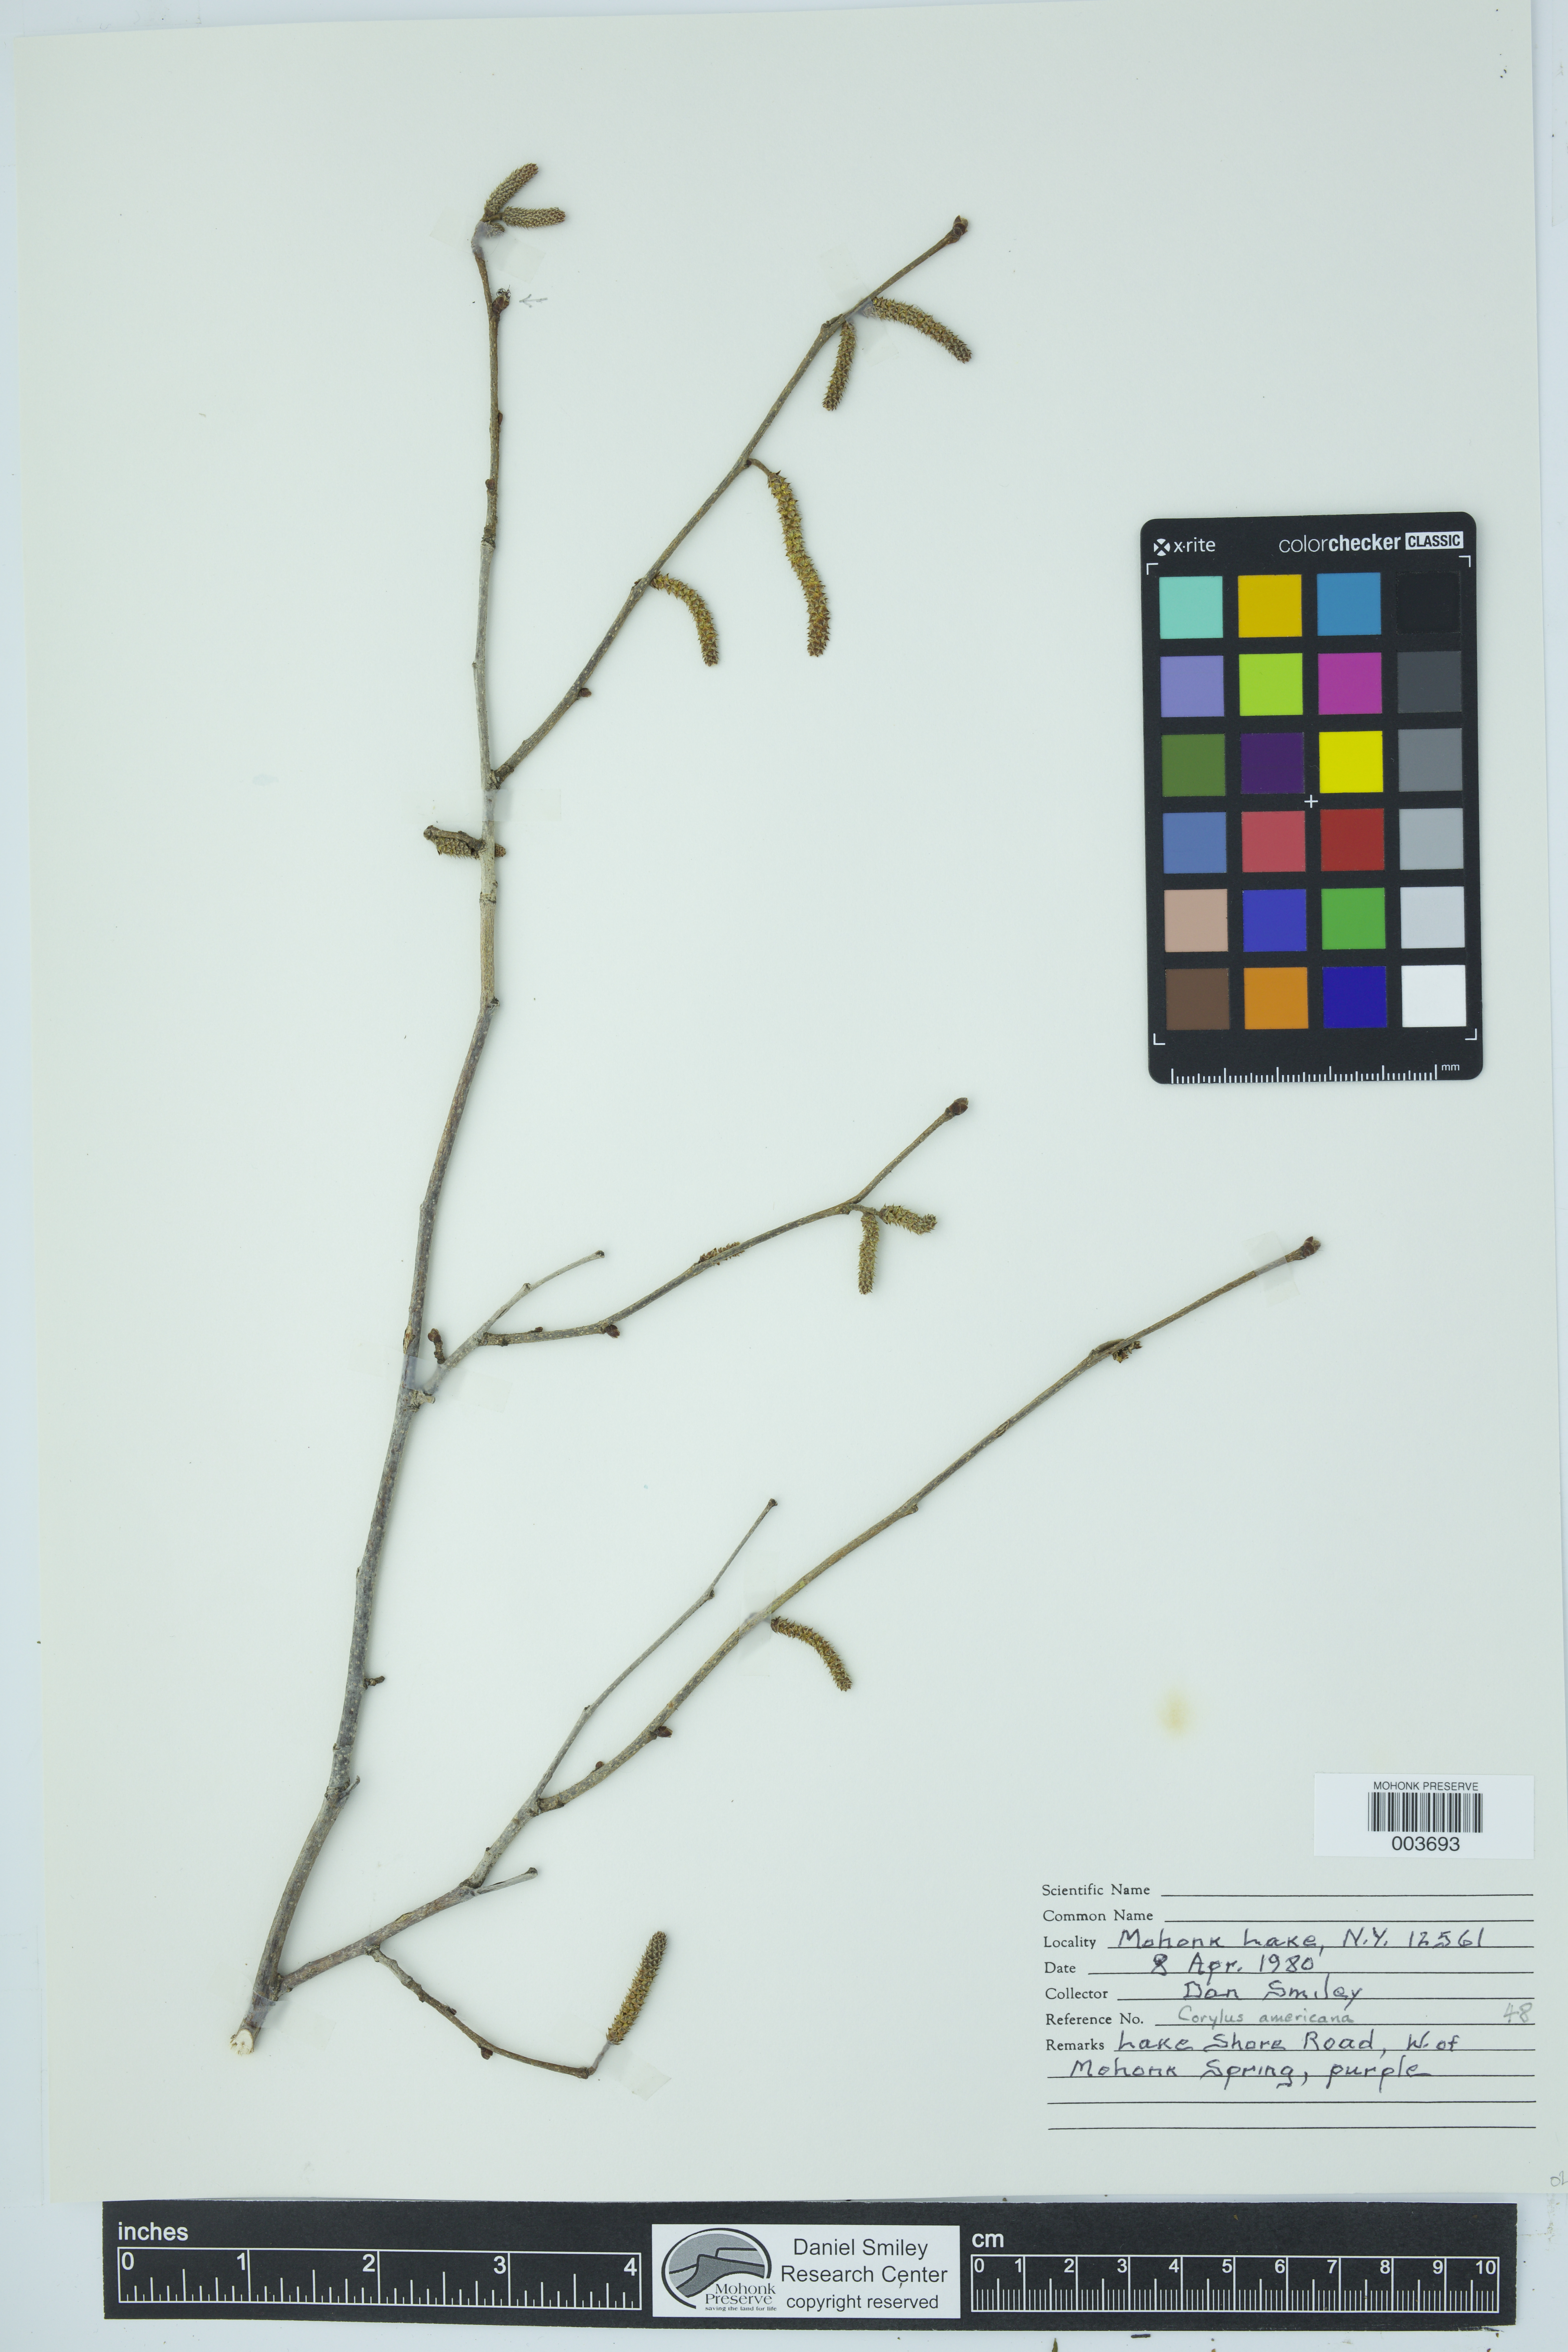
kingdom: Plantae
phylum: Tracheophyta
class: Magnoliopsida
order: Fagales
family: Betulaceae
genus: Corylus
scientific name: Corylus americana
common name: American hazel
